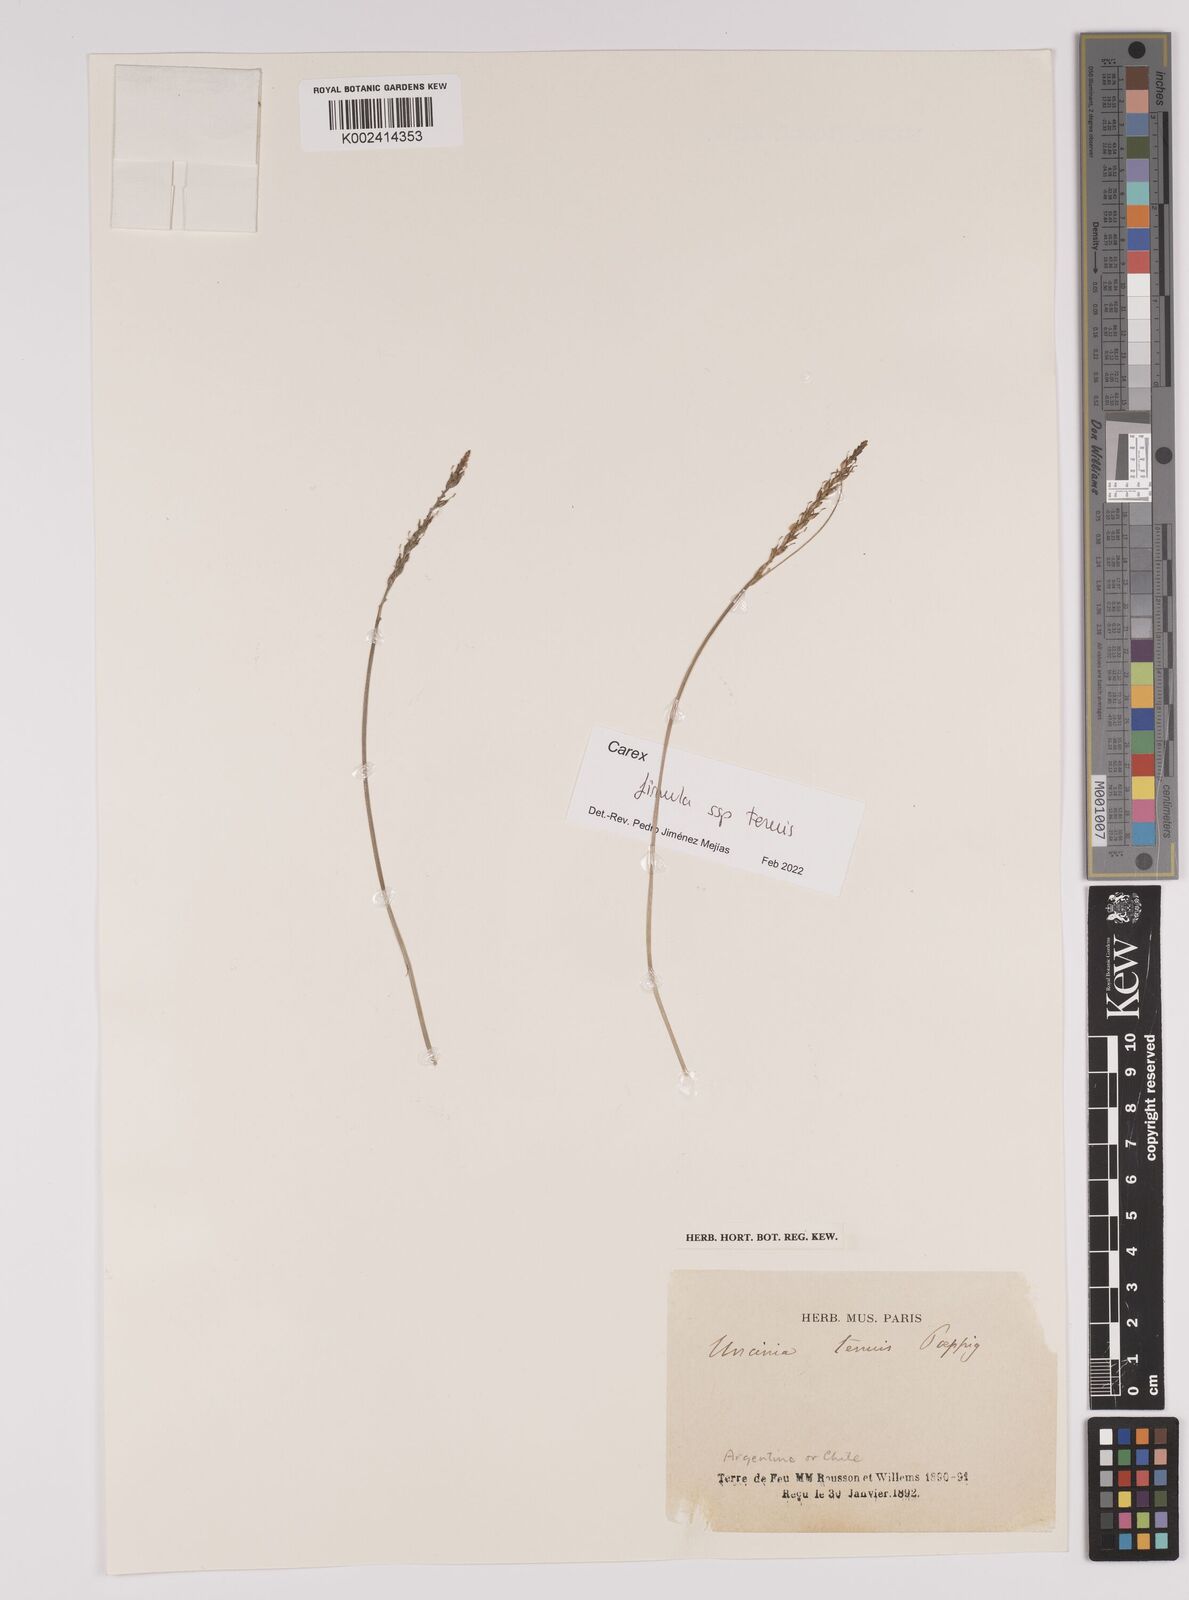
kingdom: Plantae
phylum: Tracheophyta
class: Liliopsida
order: Poales
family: Cyperaceae
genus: Carex
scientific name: Carex firmula
